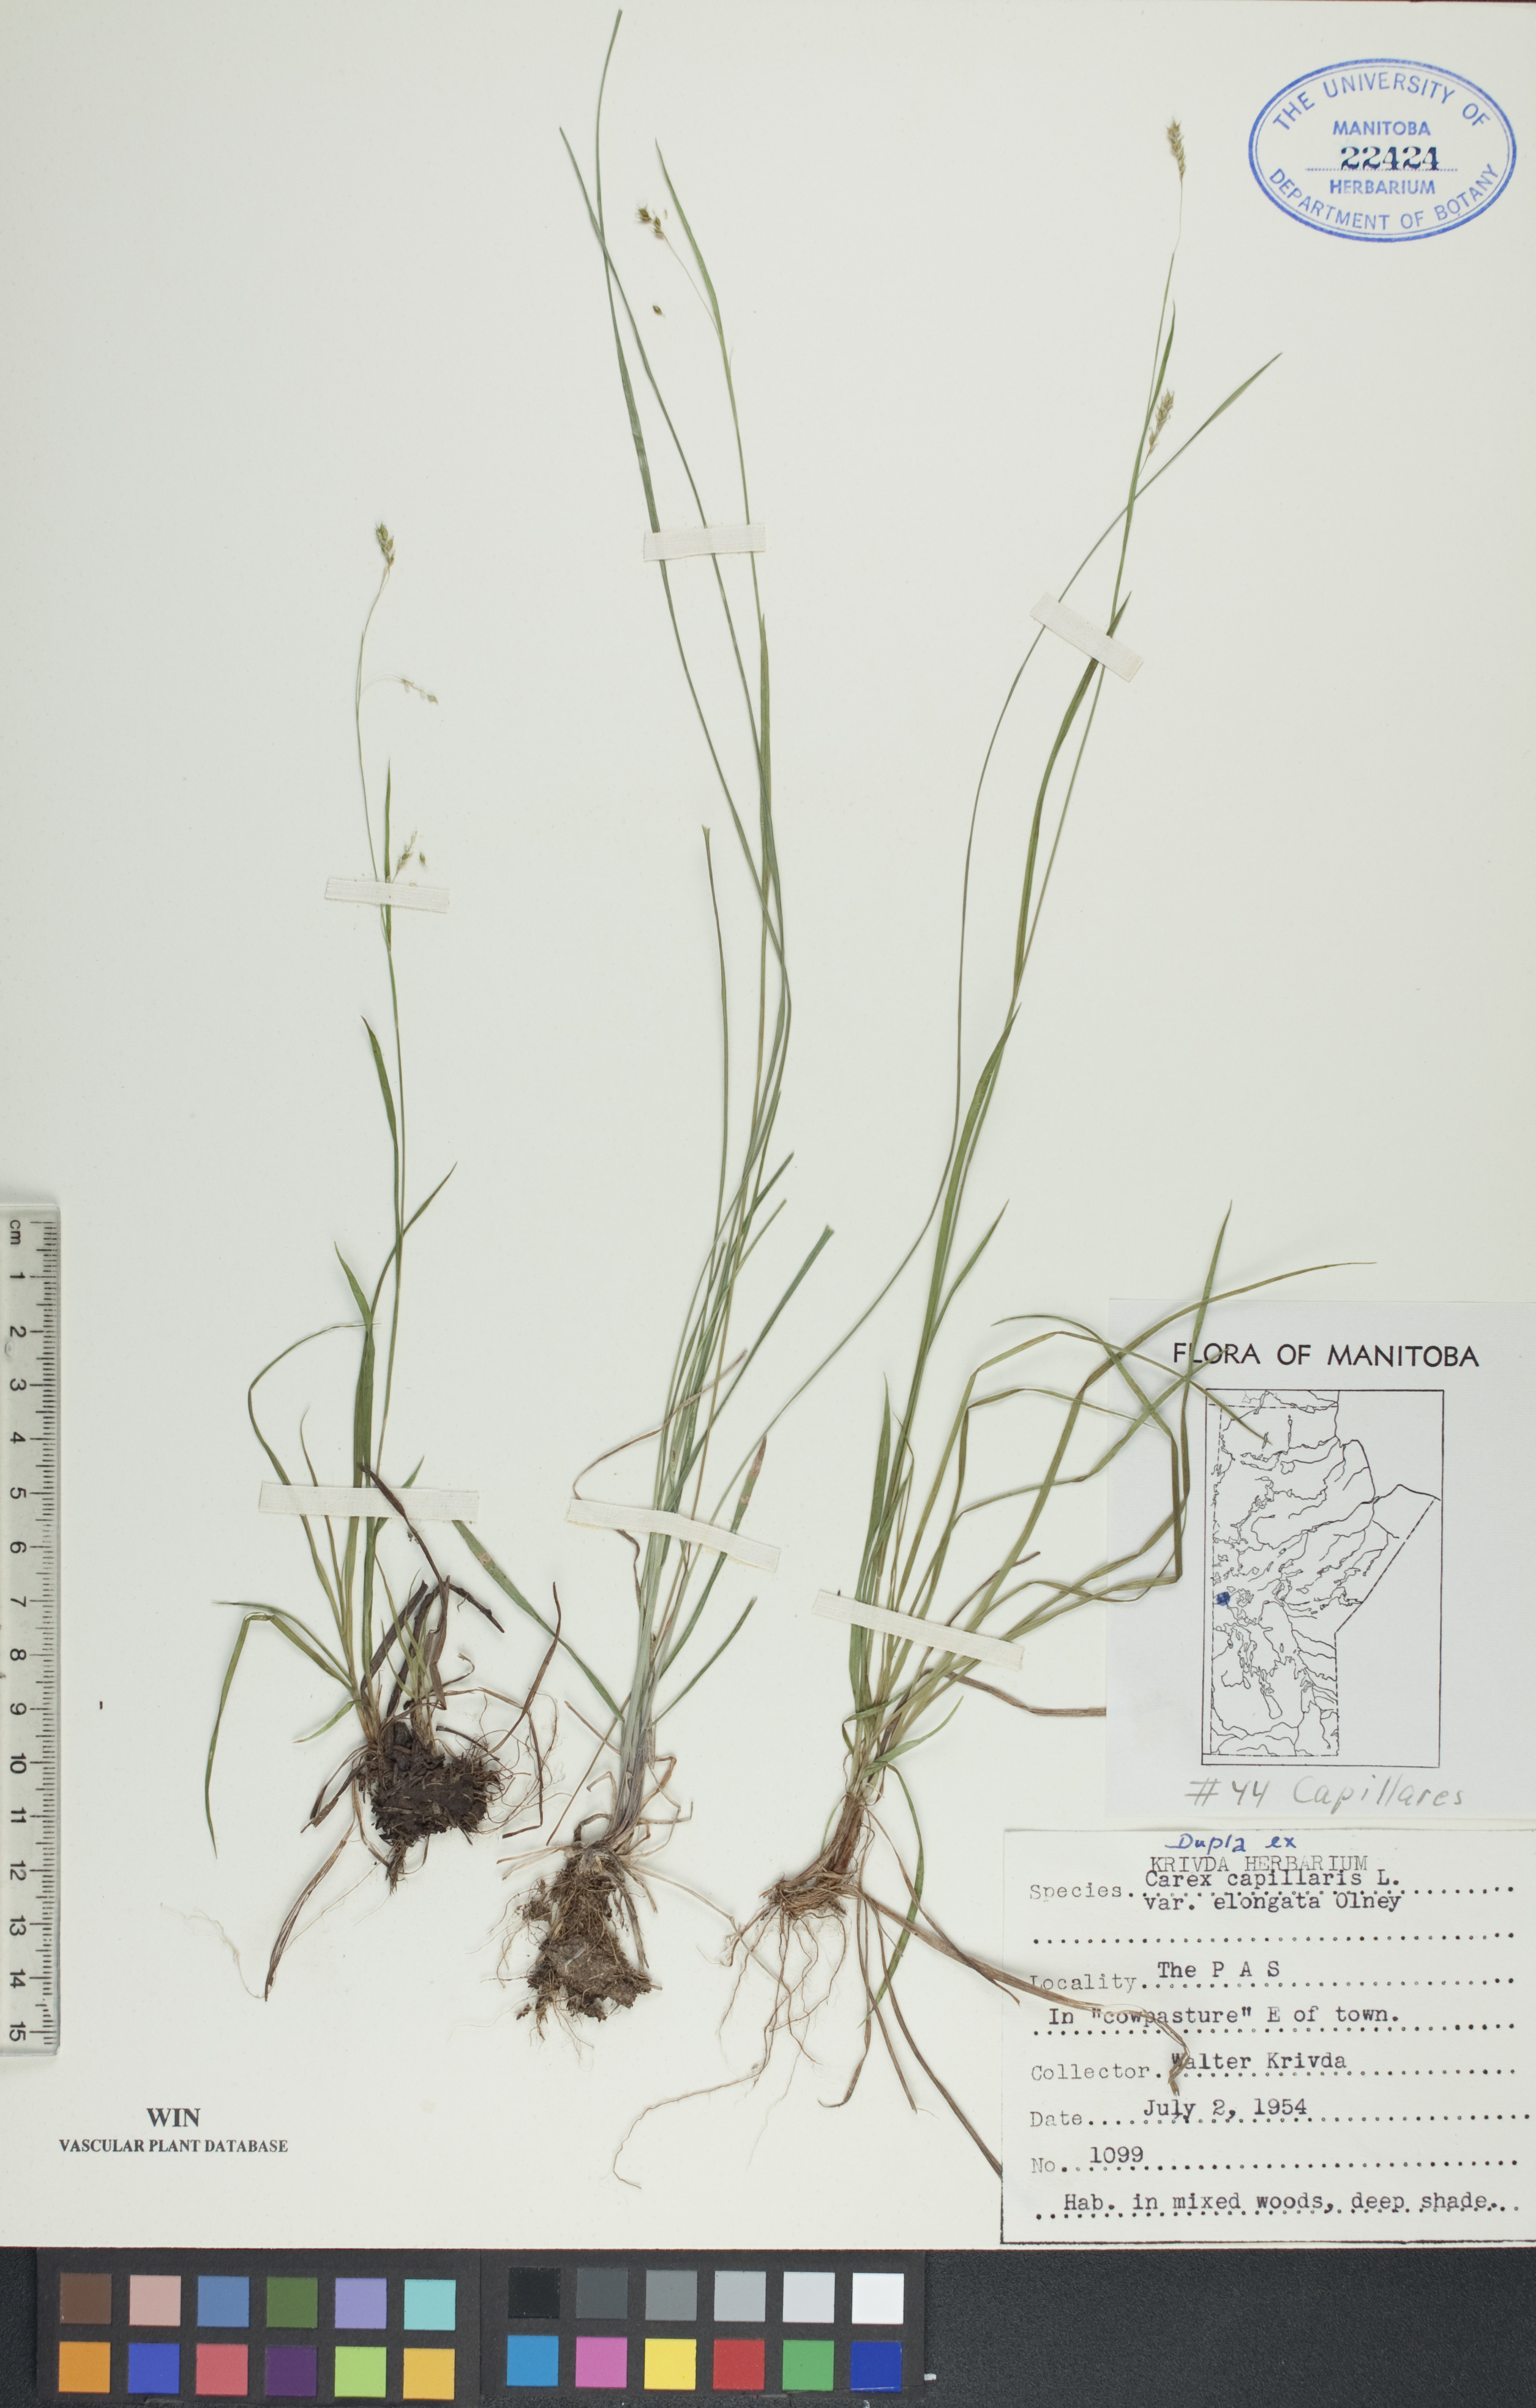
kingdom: Plantae
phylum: Tracheophyta
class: Liliopsida
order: Poales
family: Cyperaceae
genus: Carex
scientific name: Carex capillaris
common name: Hair sedge
